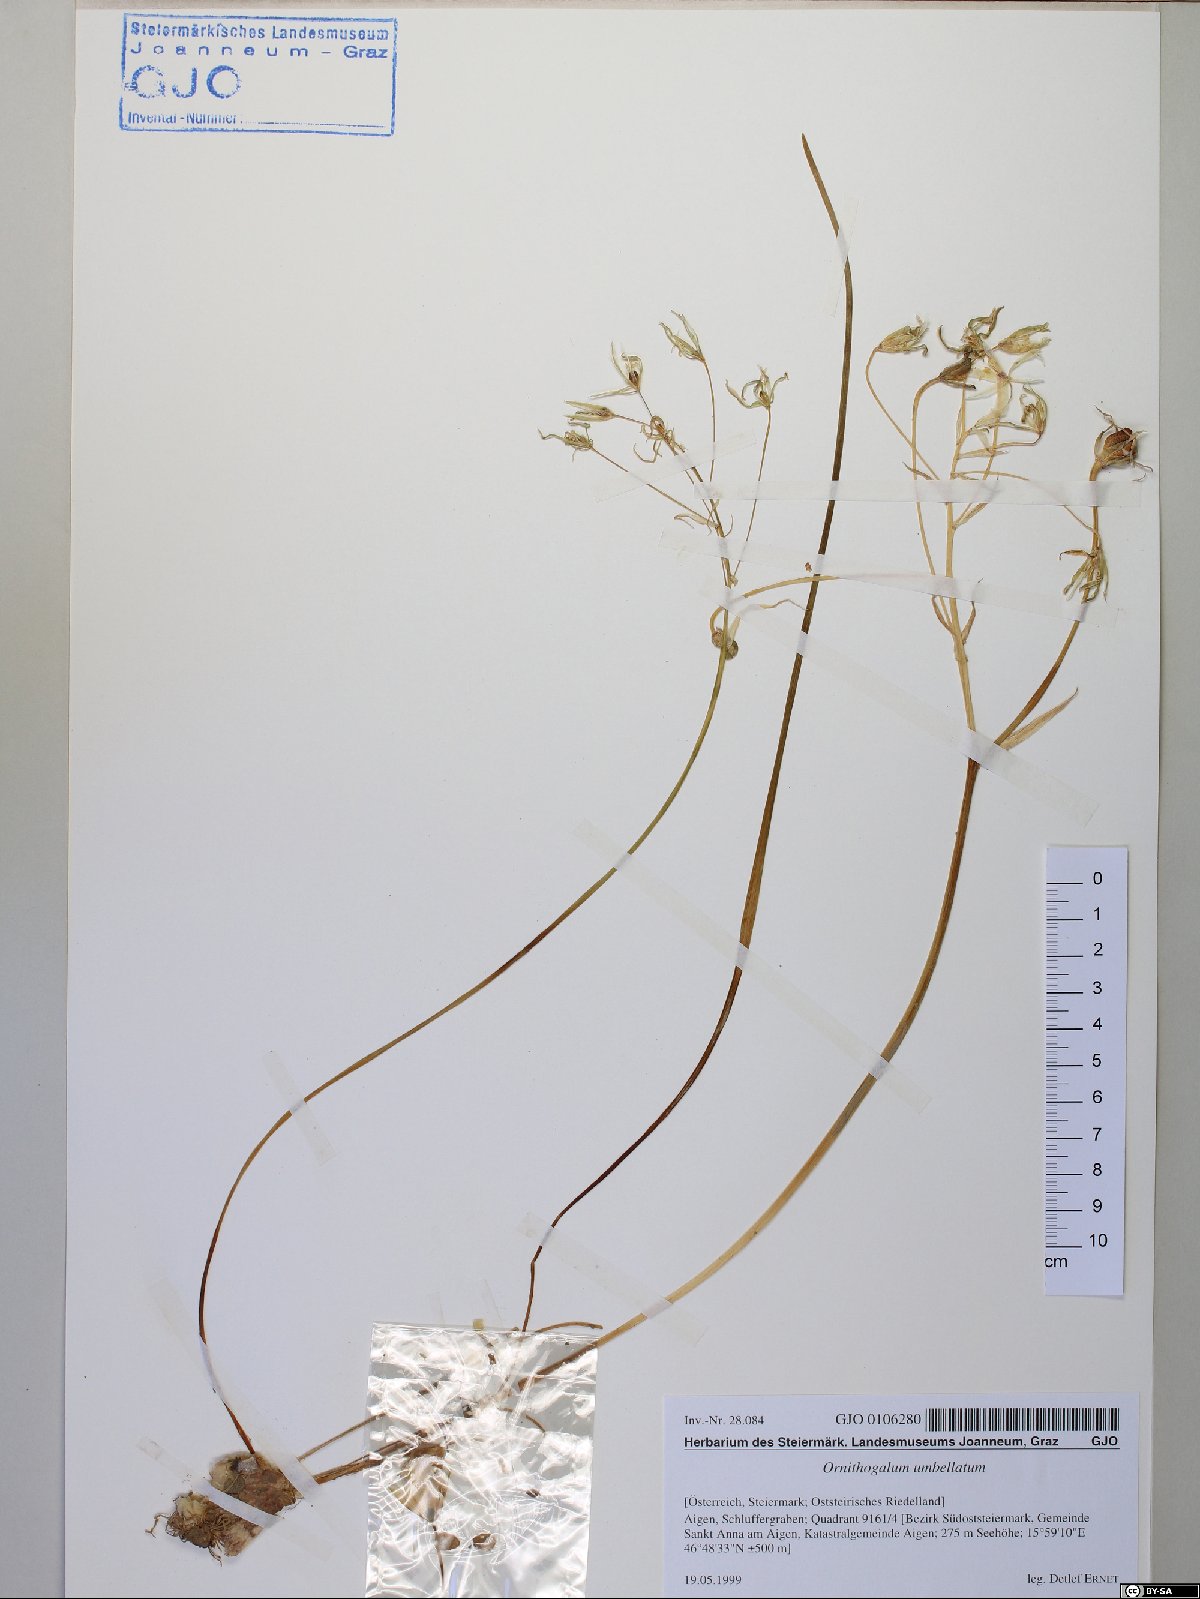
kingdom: Plantae
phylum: Tracheophyta
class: Liliopsida
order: Asparagales
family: Asparagaceae
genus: Ornithogalum
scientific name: Ornithogalum umbellatum
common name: Garden star-of-bethlehem
